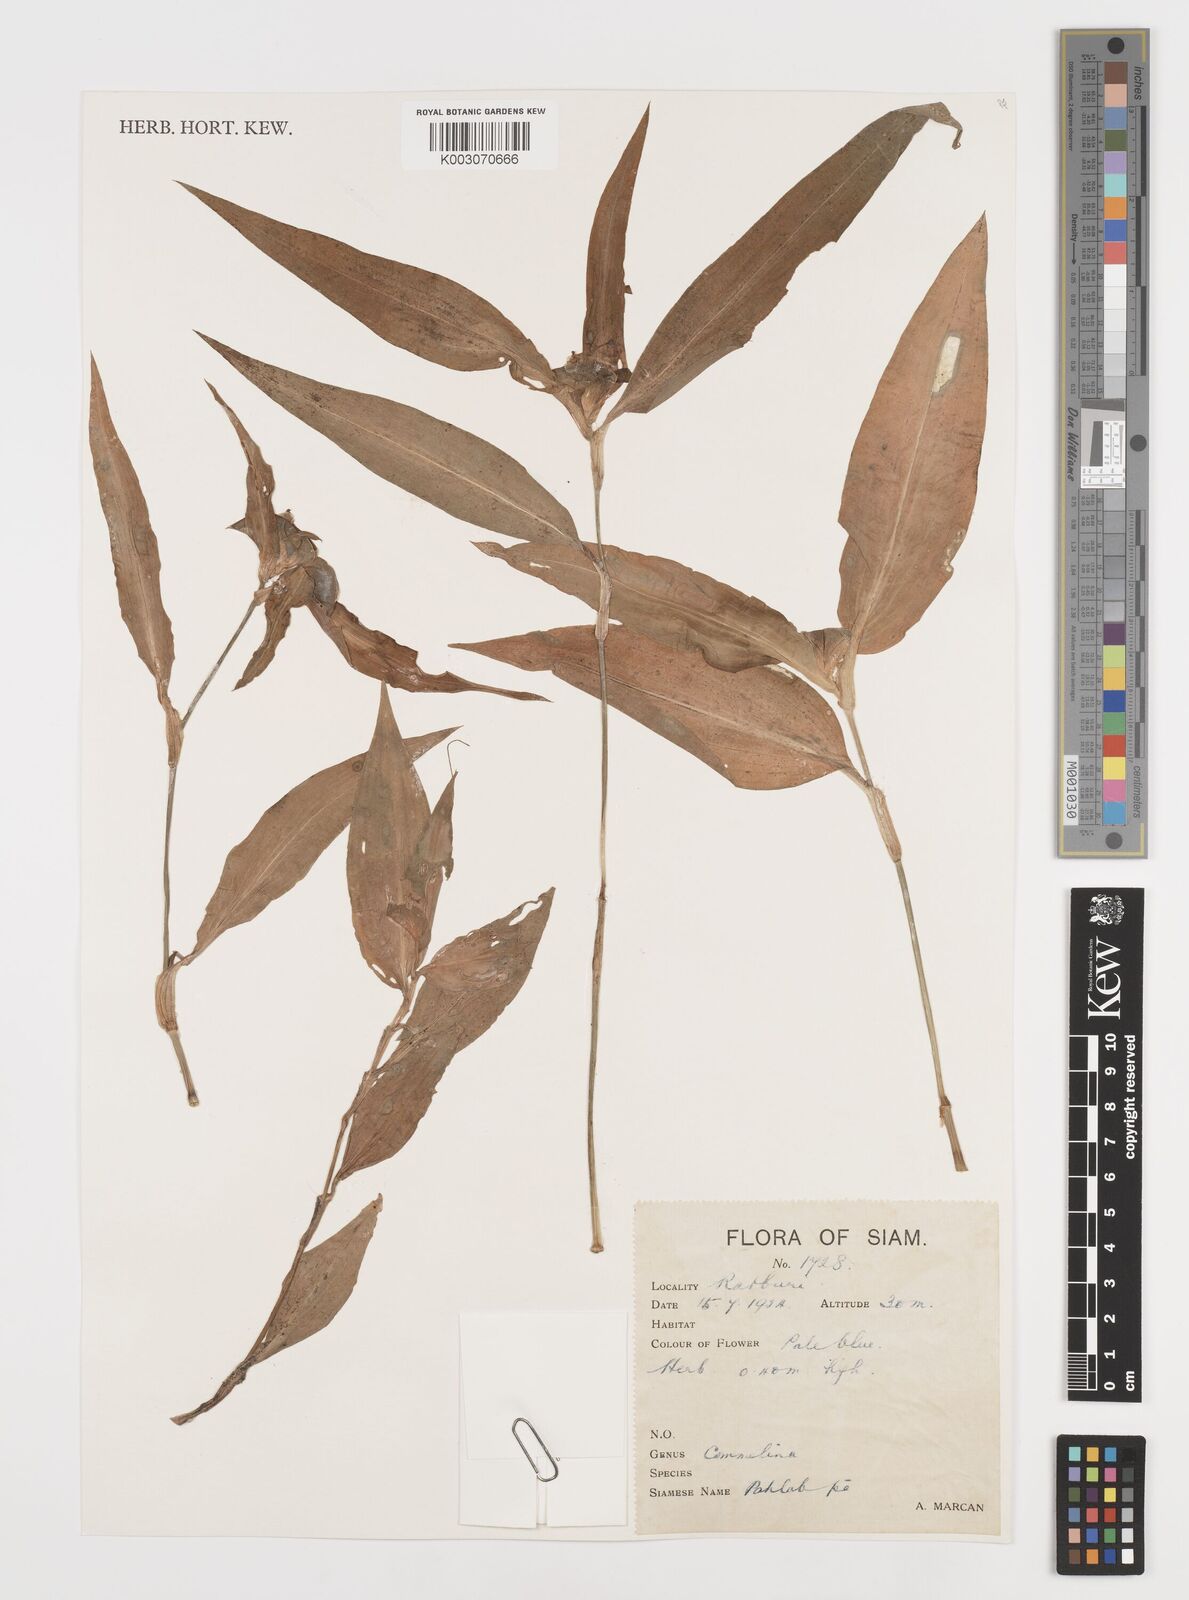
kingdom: Plantae
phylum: Tracheophyta
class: Liliopsida
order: Commelinales
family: Commelinaceae
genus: Commelina
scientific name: Commelina
